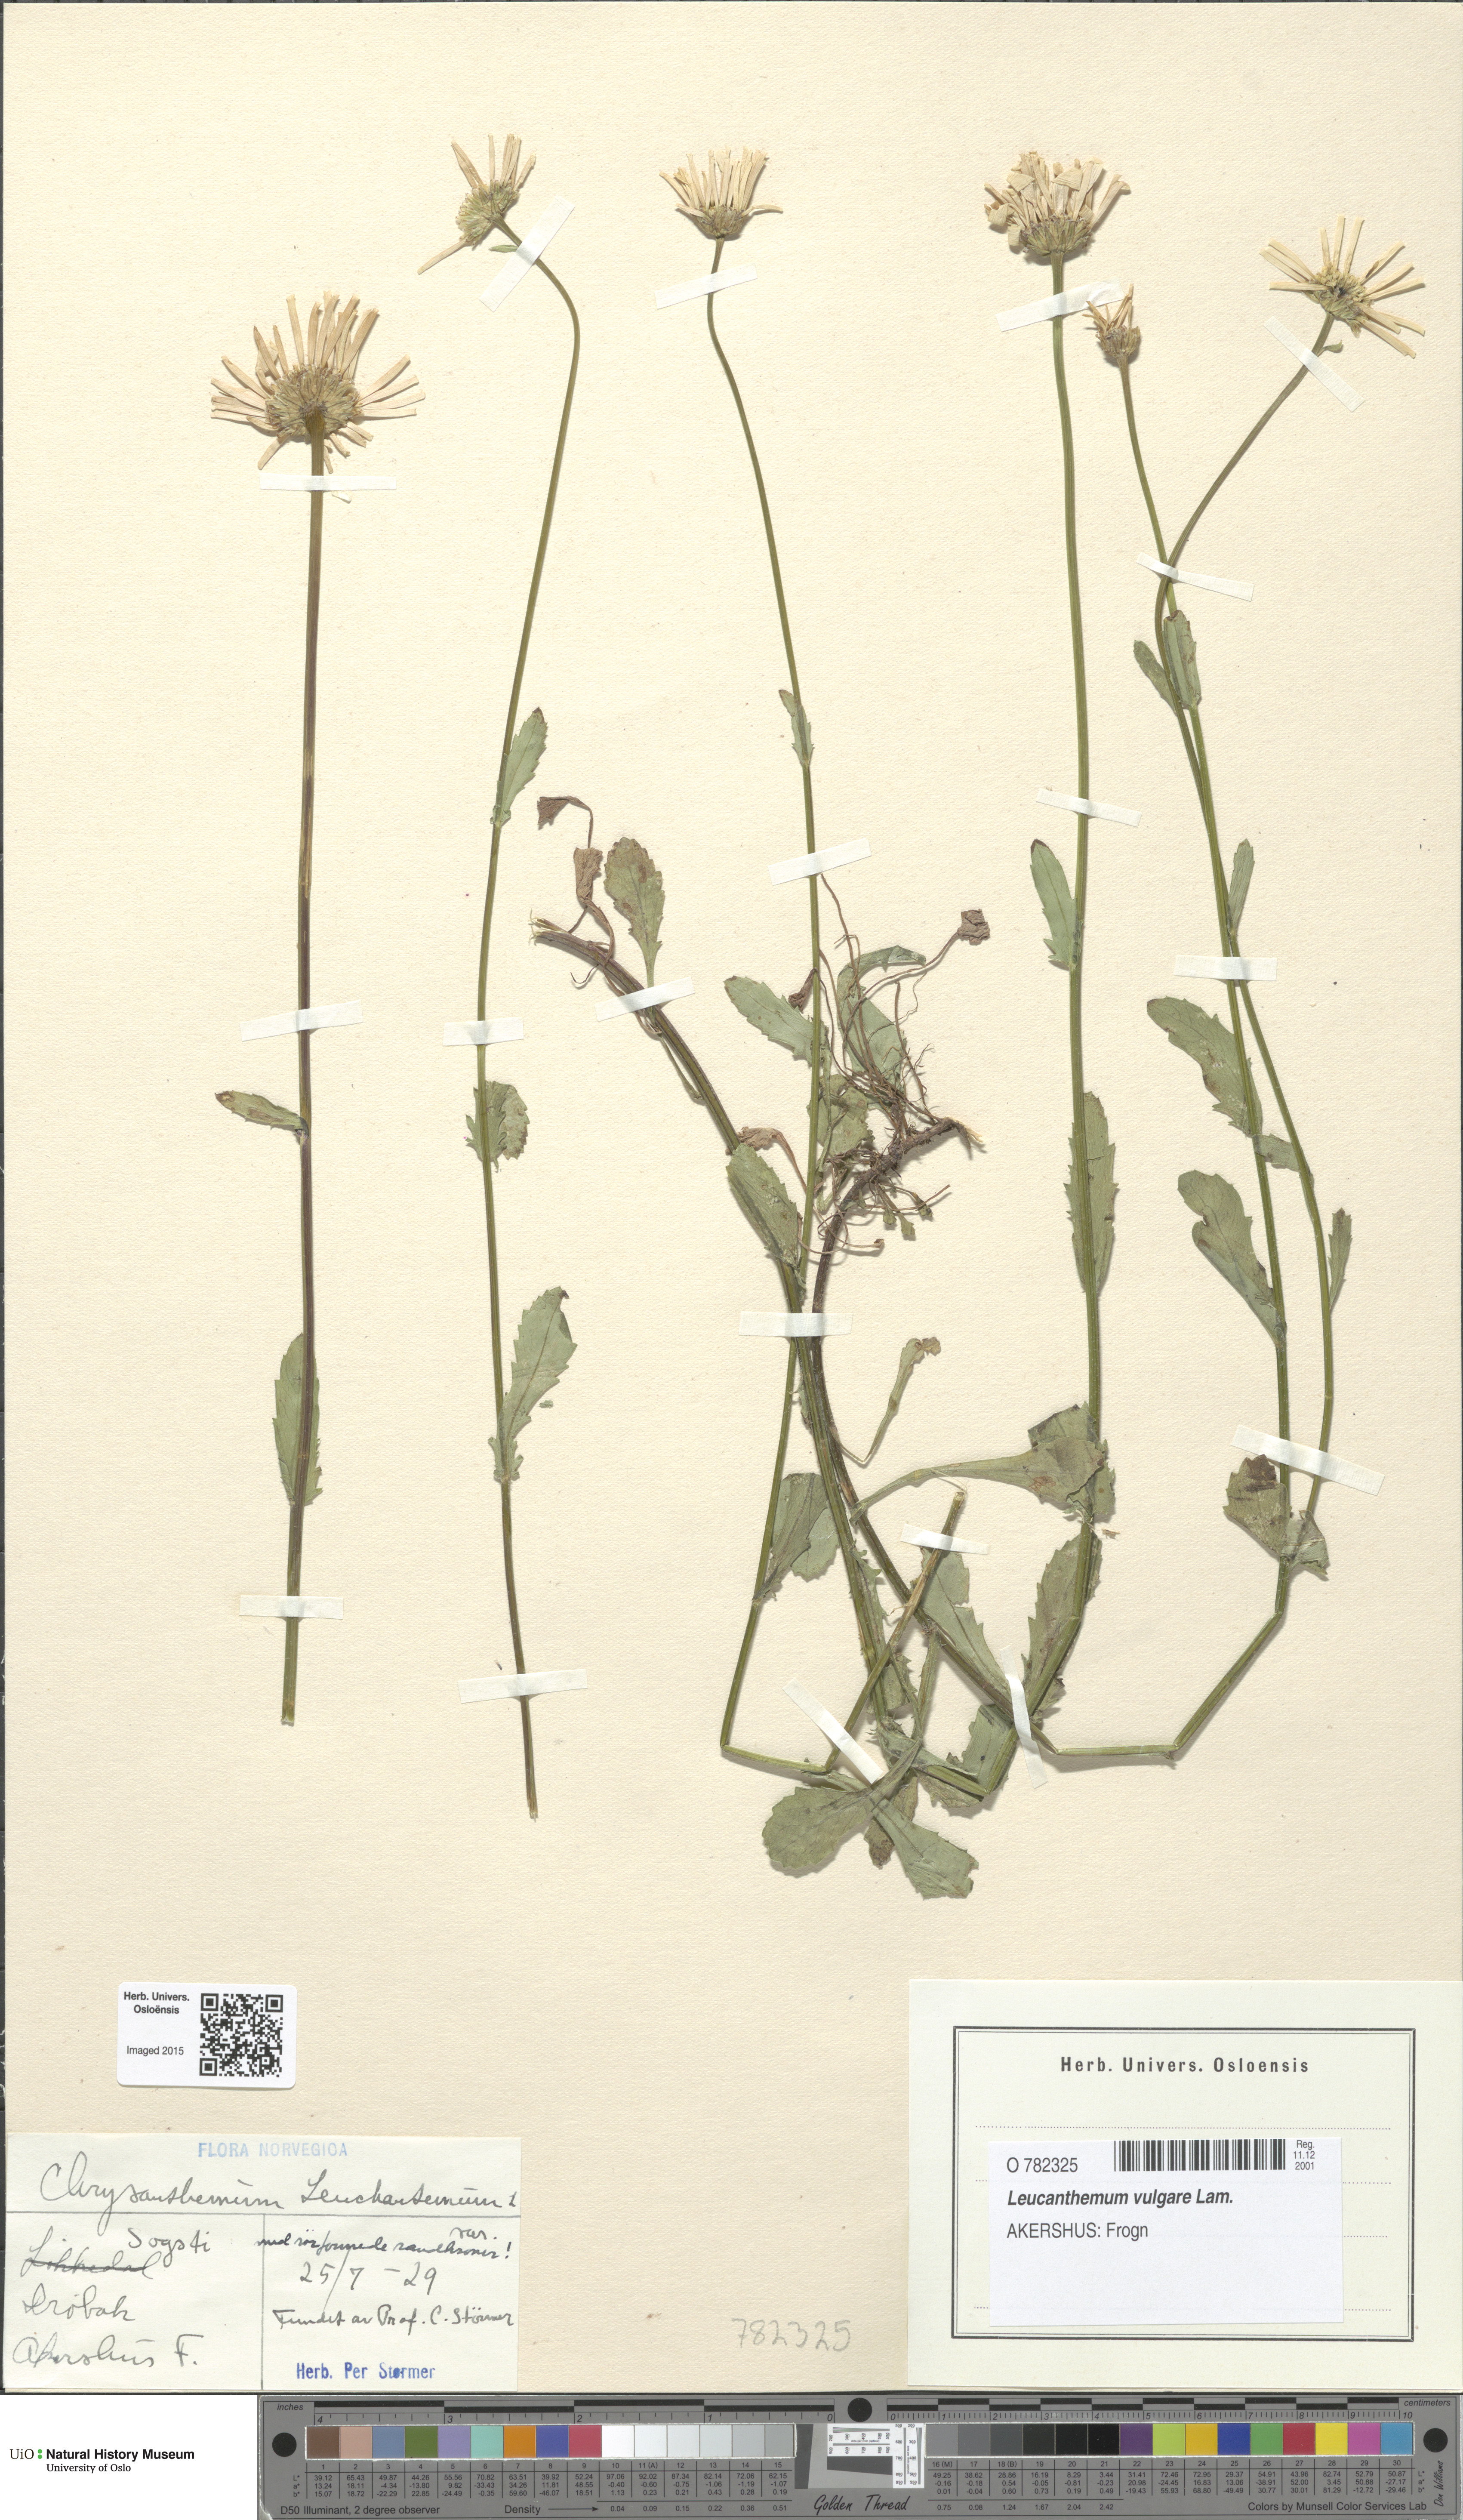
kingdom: Plantae
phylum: Tracheophyta
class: Magnoliopsida
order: Asterales
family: Asteraceae
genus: Leucanthemum
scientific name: Leucanthemum vulgare
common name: Oxeye daisy
